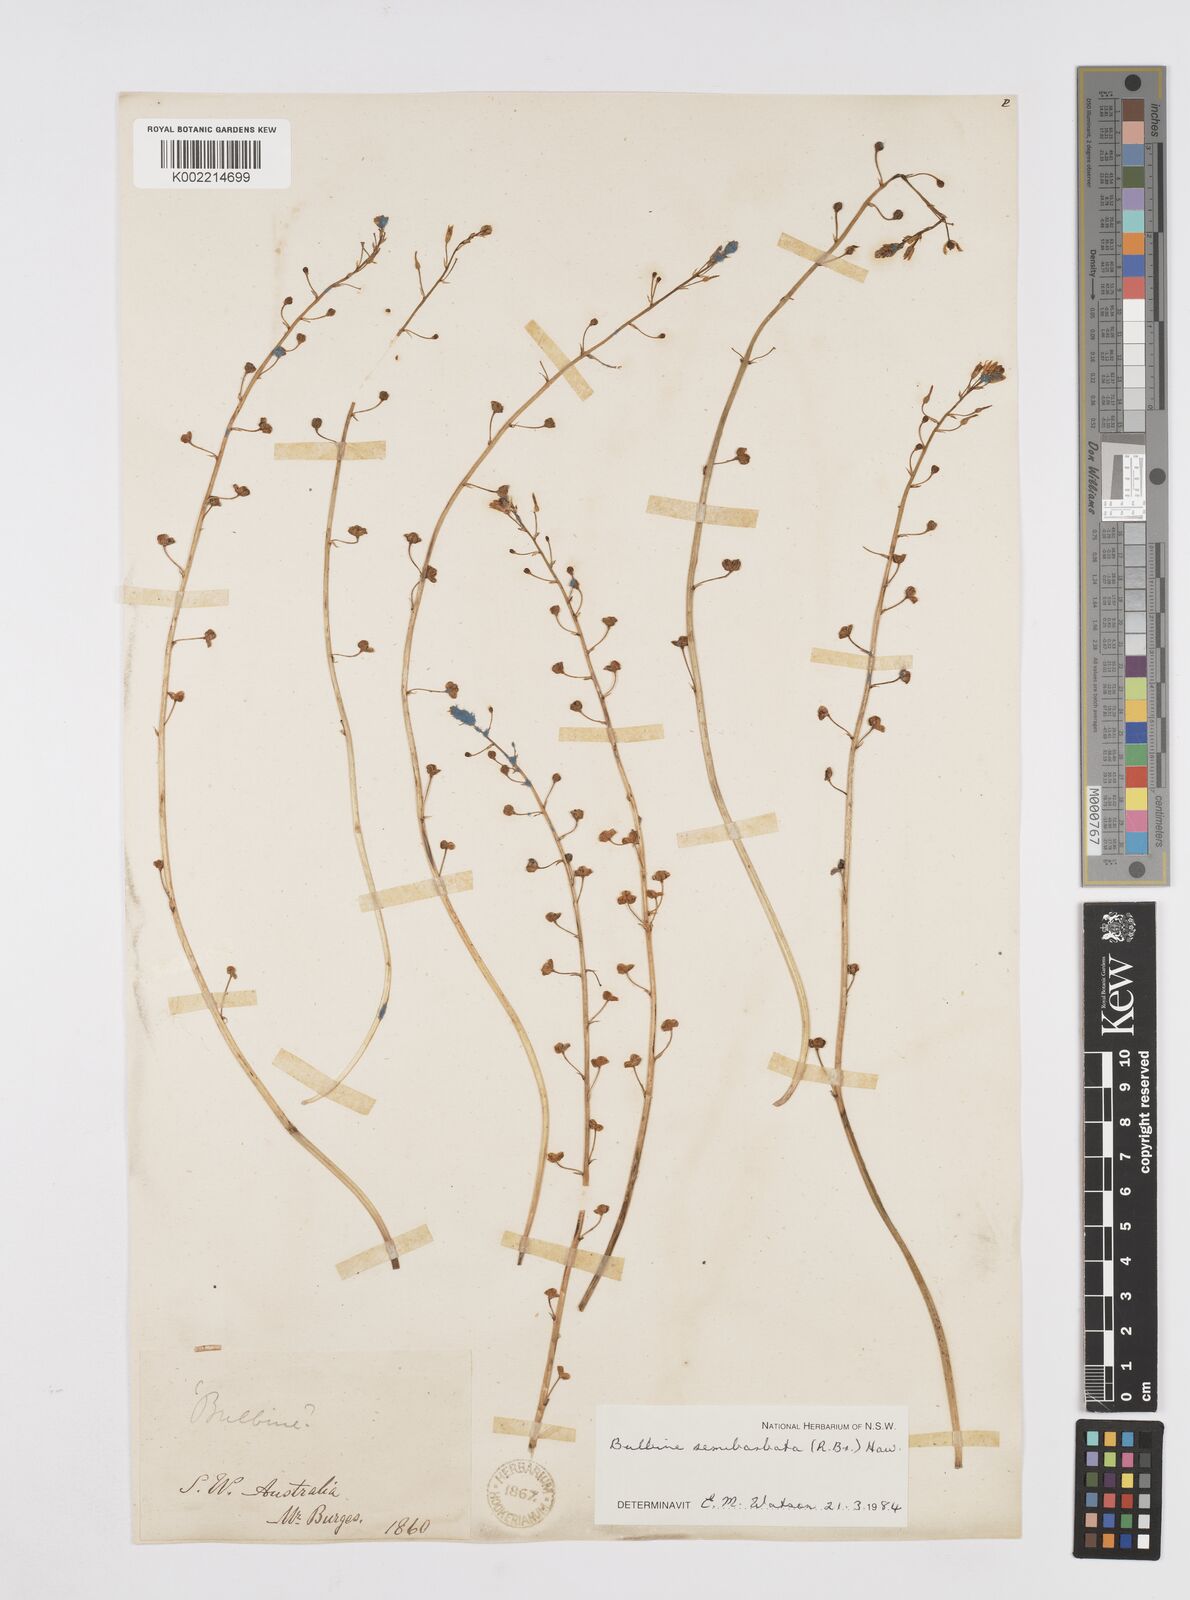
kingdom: Plantae
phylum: Tracheophyta
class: Liliopsida
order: Asparagales
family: Asphodelaceae
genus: Bulbine
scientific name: Bulbine semibarbata
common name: Leek lily
